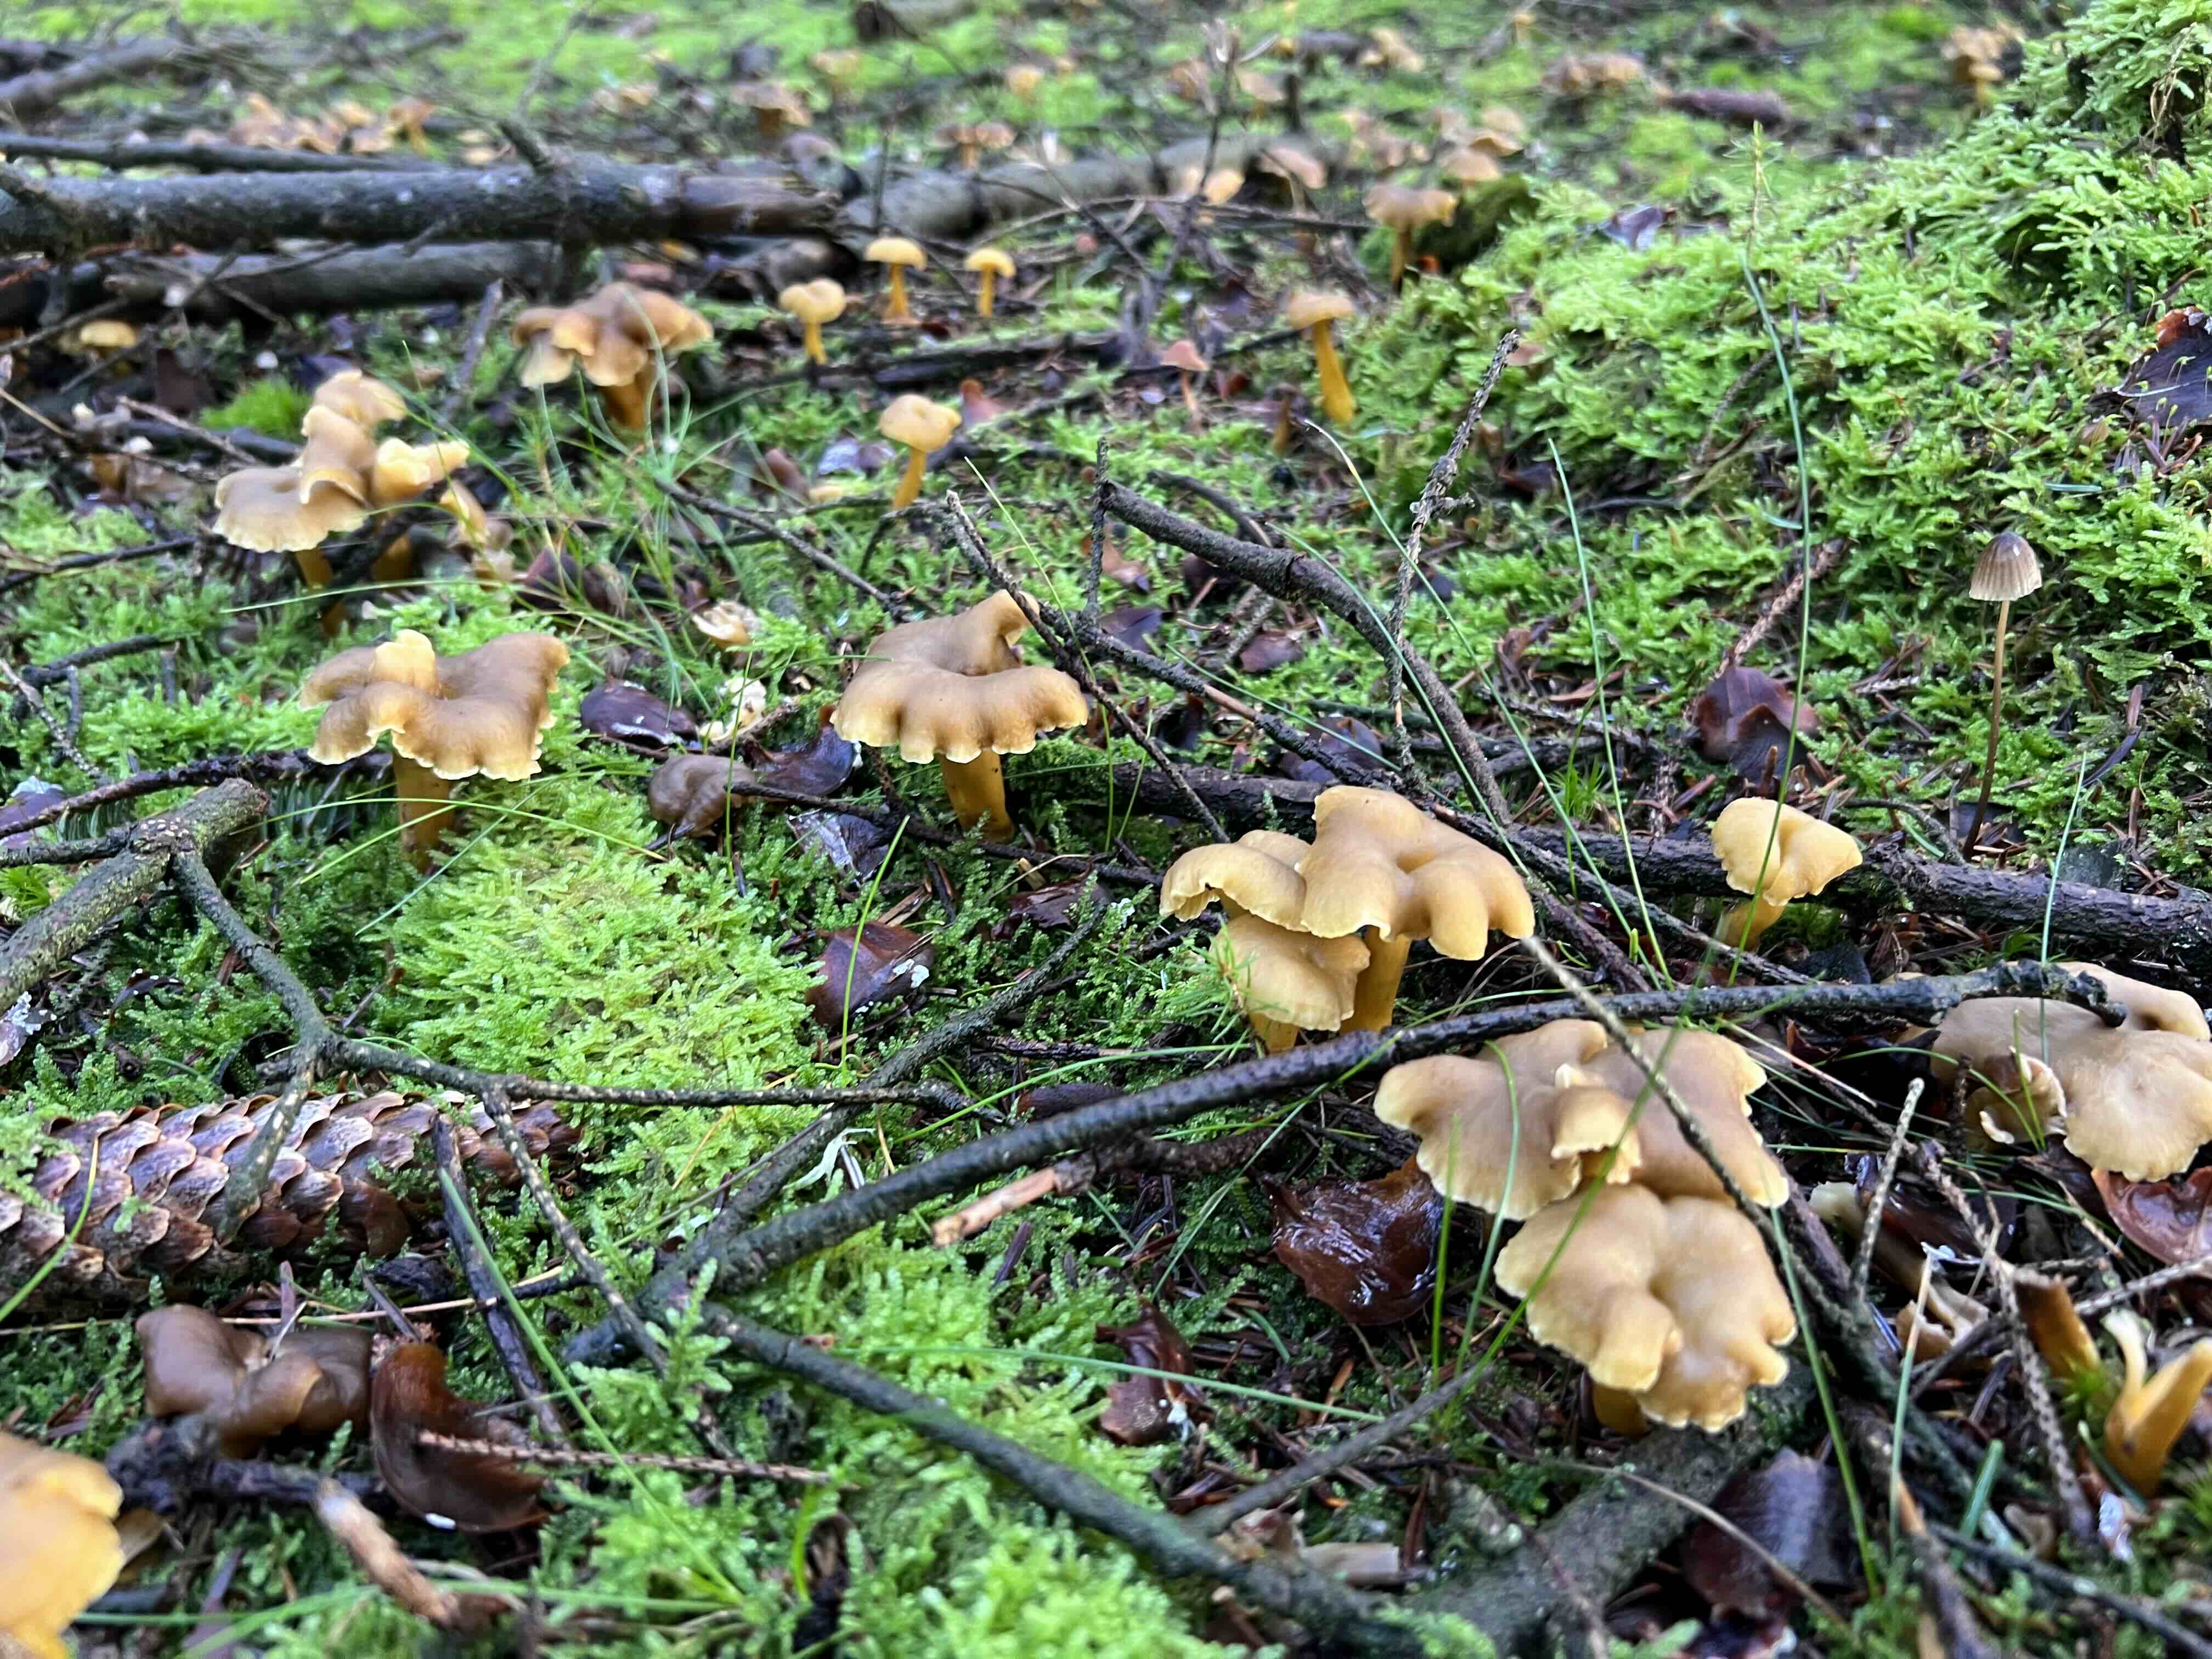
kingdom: Fungi
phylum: Basidiomycota
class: Agaricomycetes
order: Cantharellales
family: Hydnaceae
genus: Craterellus
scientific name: Craterellus tubaeformis
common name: tragt-kantarel
